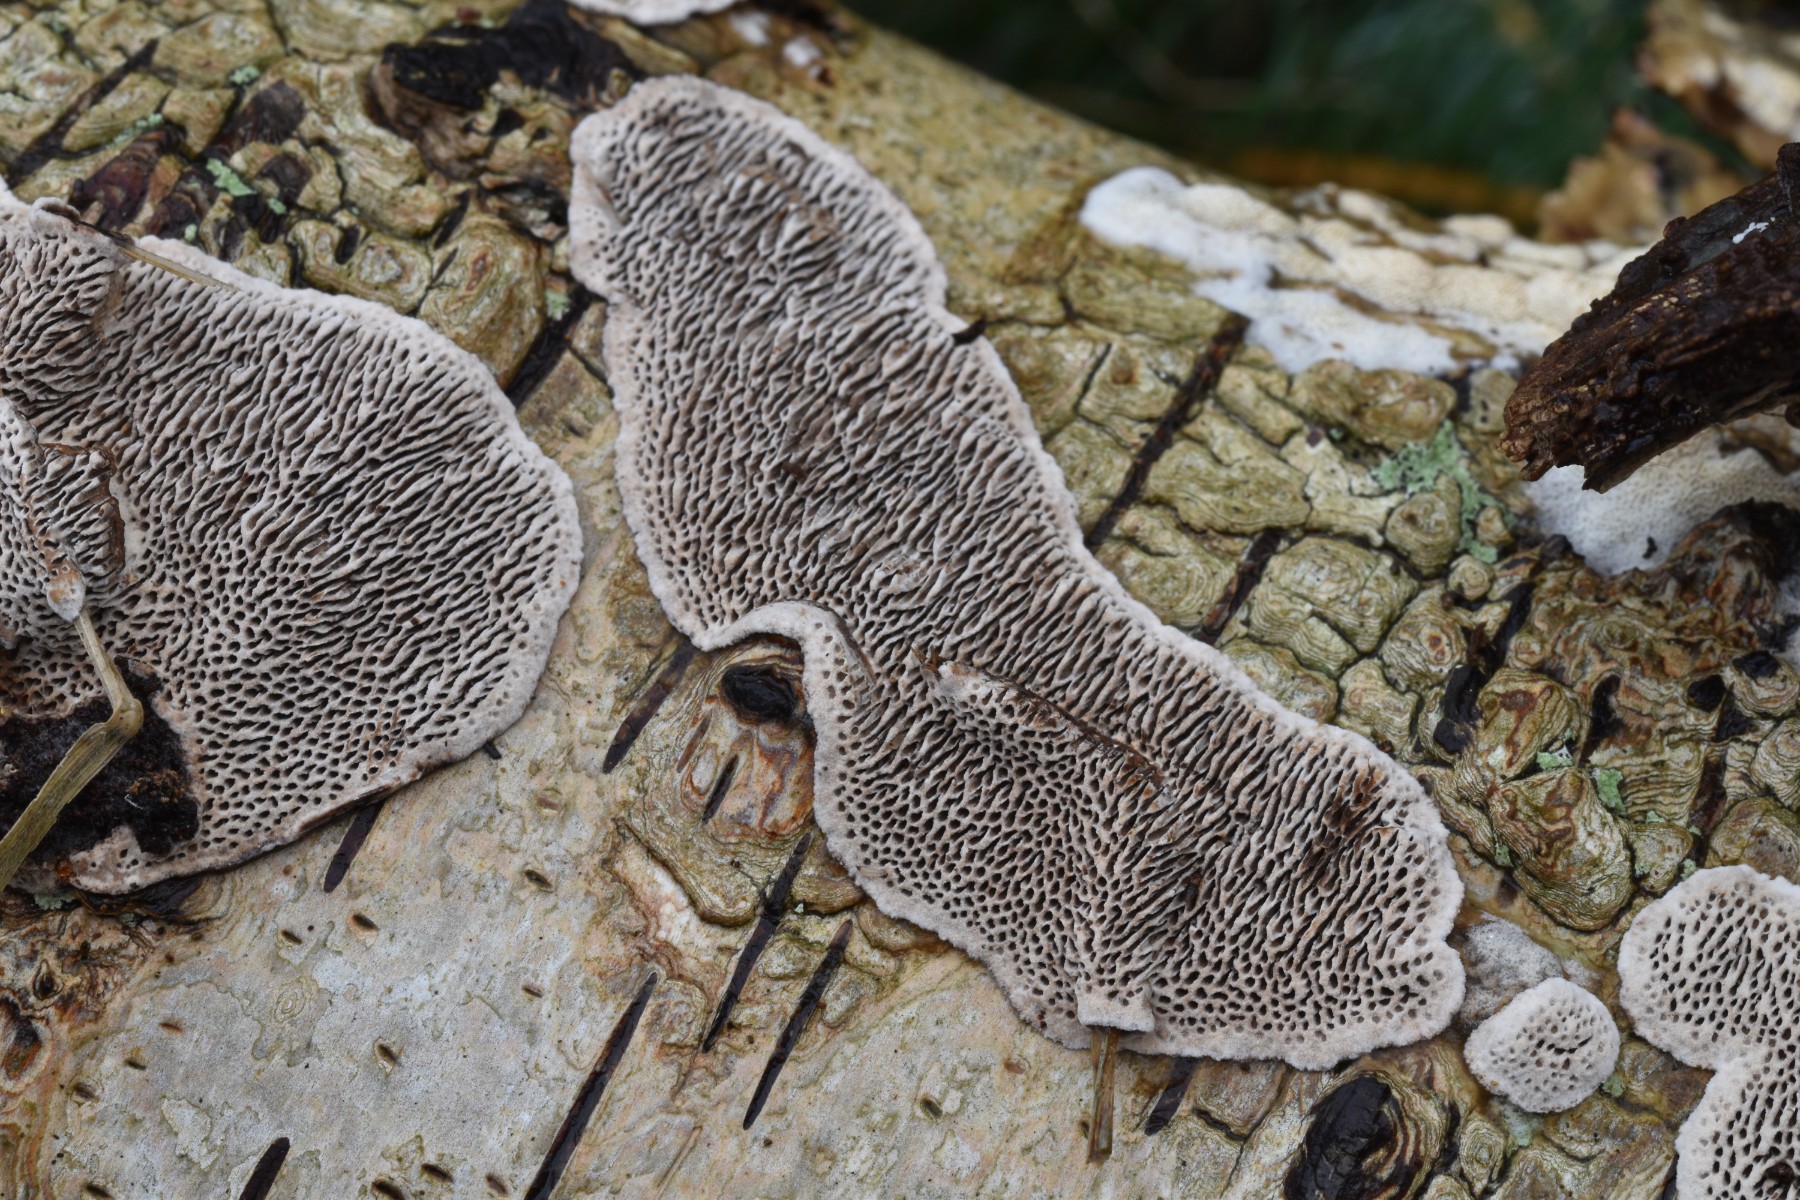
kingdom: Fungi
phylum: Basidiomycota
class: Agaricomycetes
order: Polyporales
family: Polyporaceae
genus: Podofomes
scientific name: Podofomes mollis
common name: blød begporesvamp
